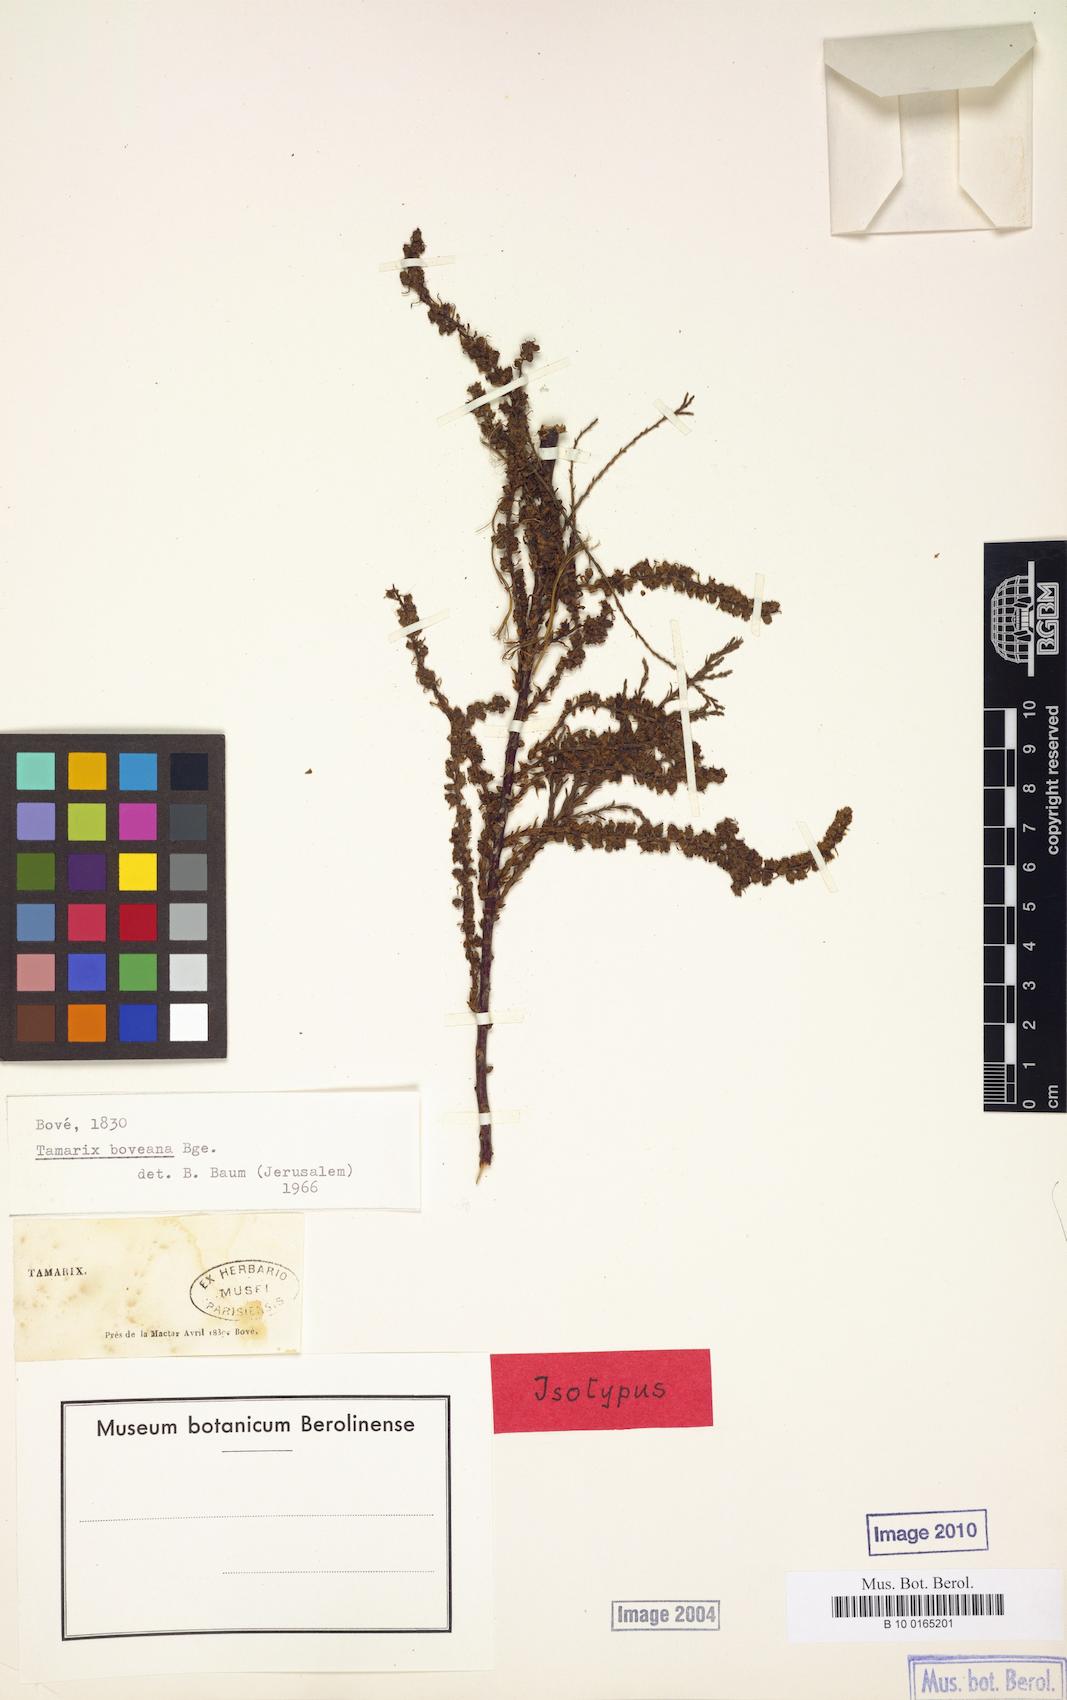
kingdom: Plantae
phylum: Tracheophyta
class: Magnoliopsida
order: Caryophyllales
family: Tamaricaceae
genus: Tamarix
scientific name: Tamarix boveana
